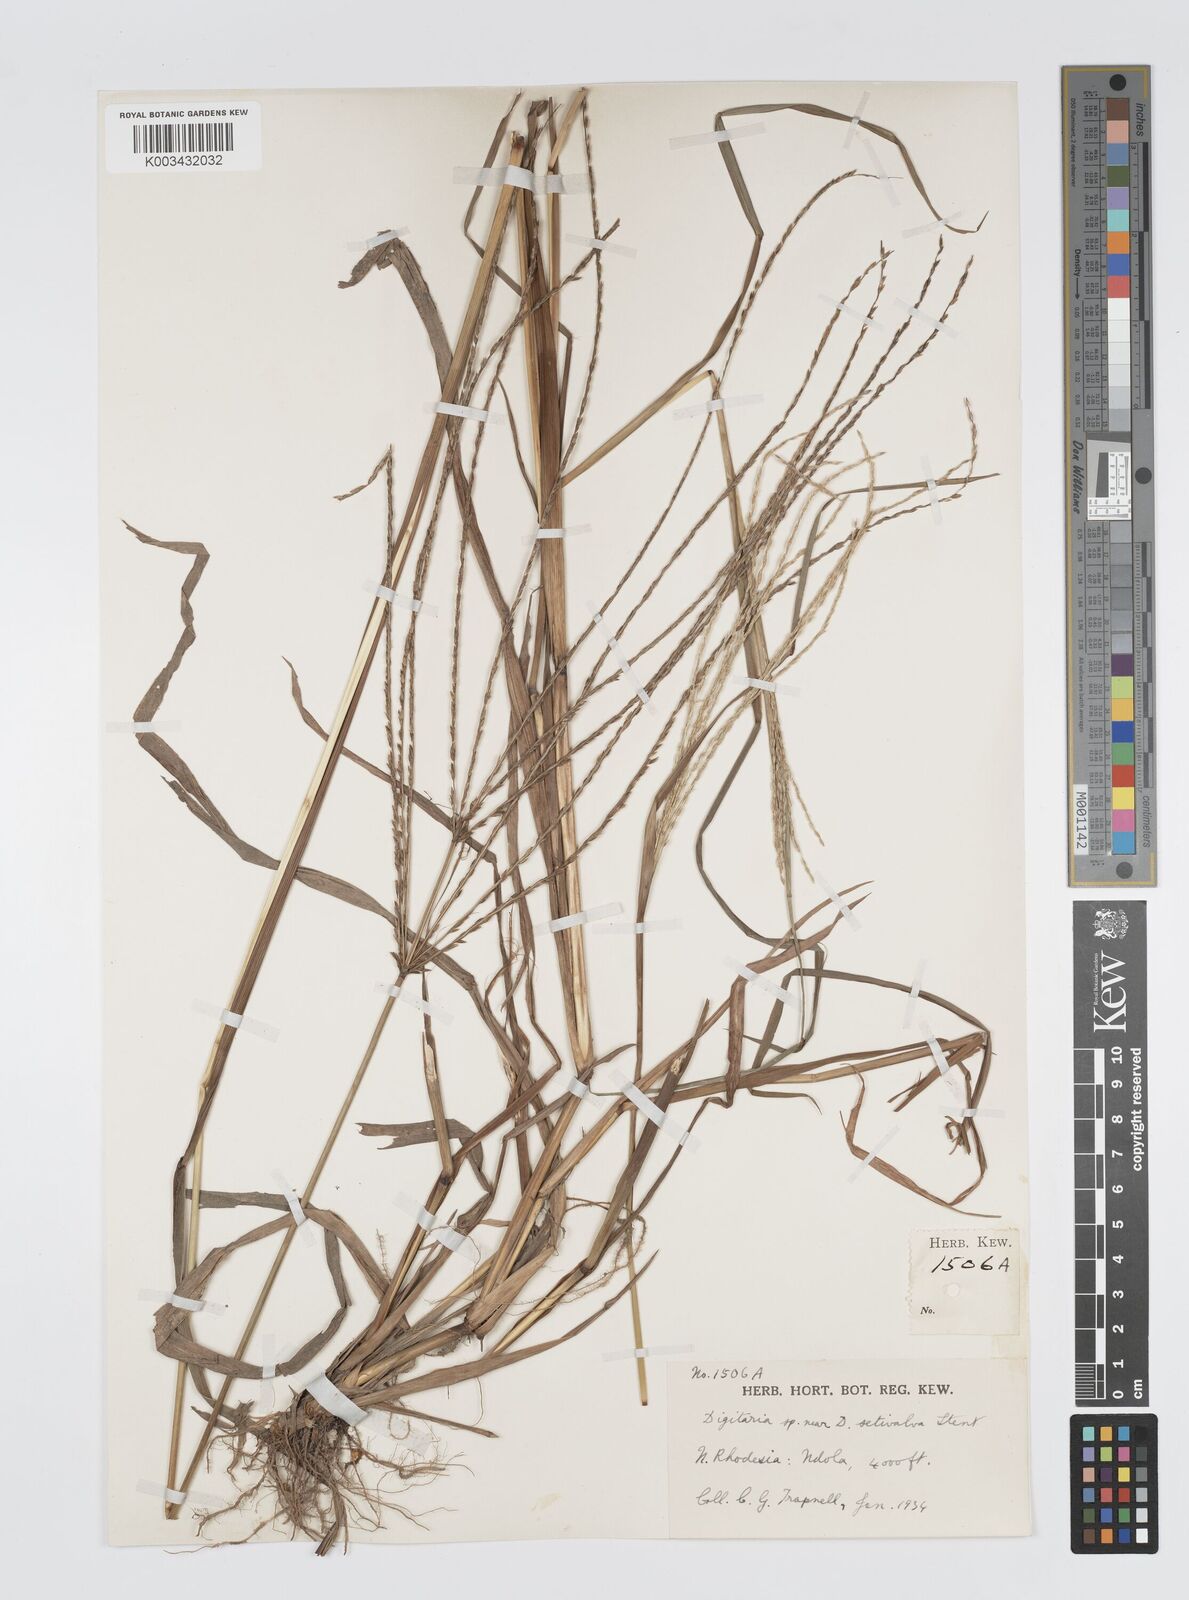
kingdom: Plantae
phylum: Tracheophyta
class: Liliopsida
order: Poales
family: Poaceae
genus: Digitaria
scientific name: Digitaria milanjiana
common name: Madagascar crabgrass
